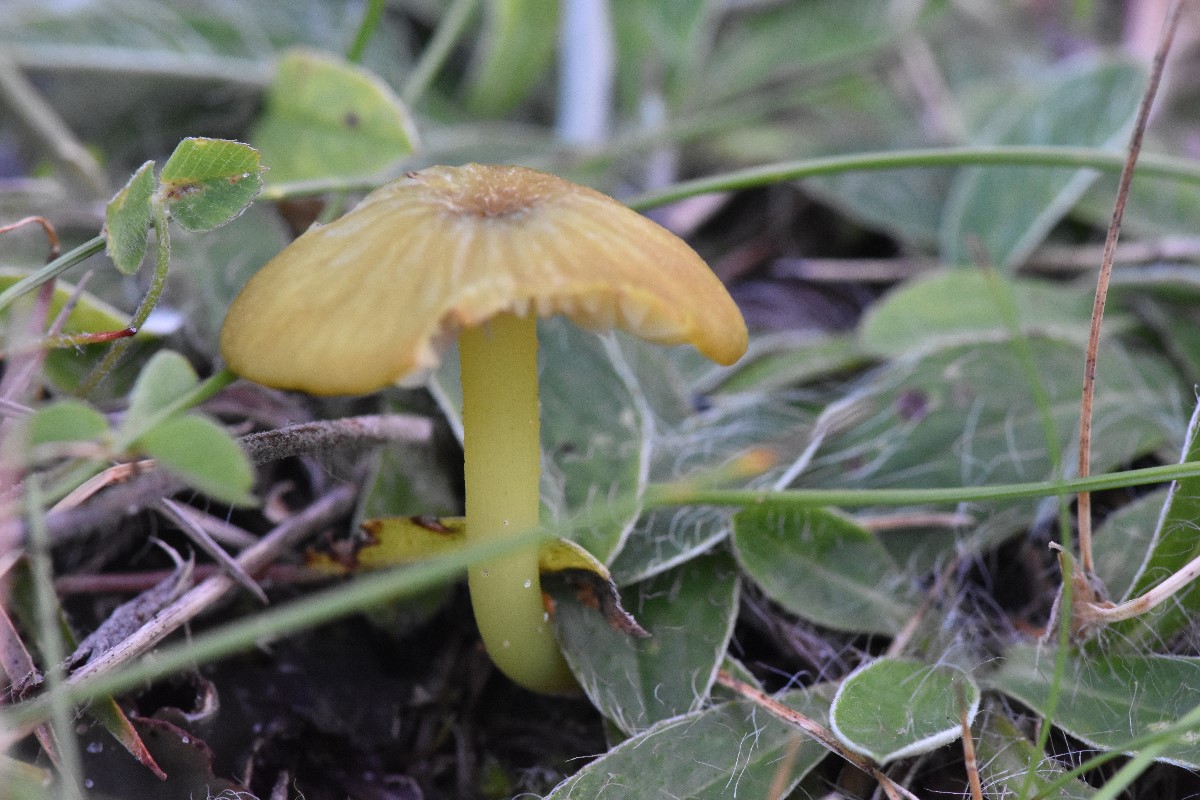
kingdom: Fungi
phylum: Basidiomycota
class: Agaricomycetes
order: Agaricales
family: Entolomataceae
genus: Entoloma
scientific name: Entoloma incanum
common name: grøngul rødblad
